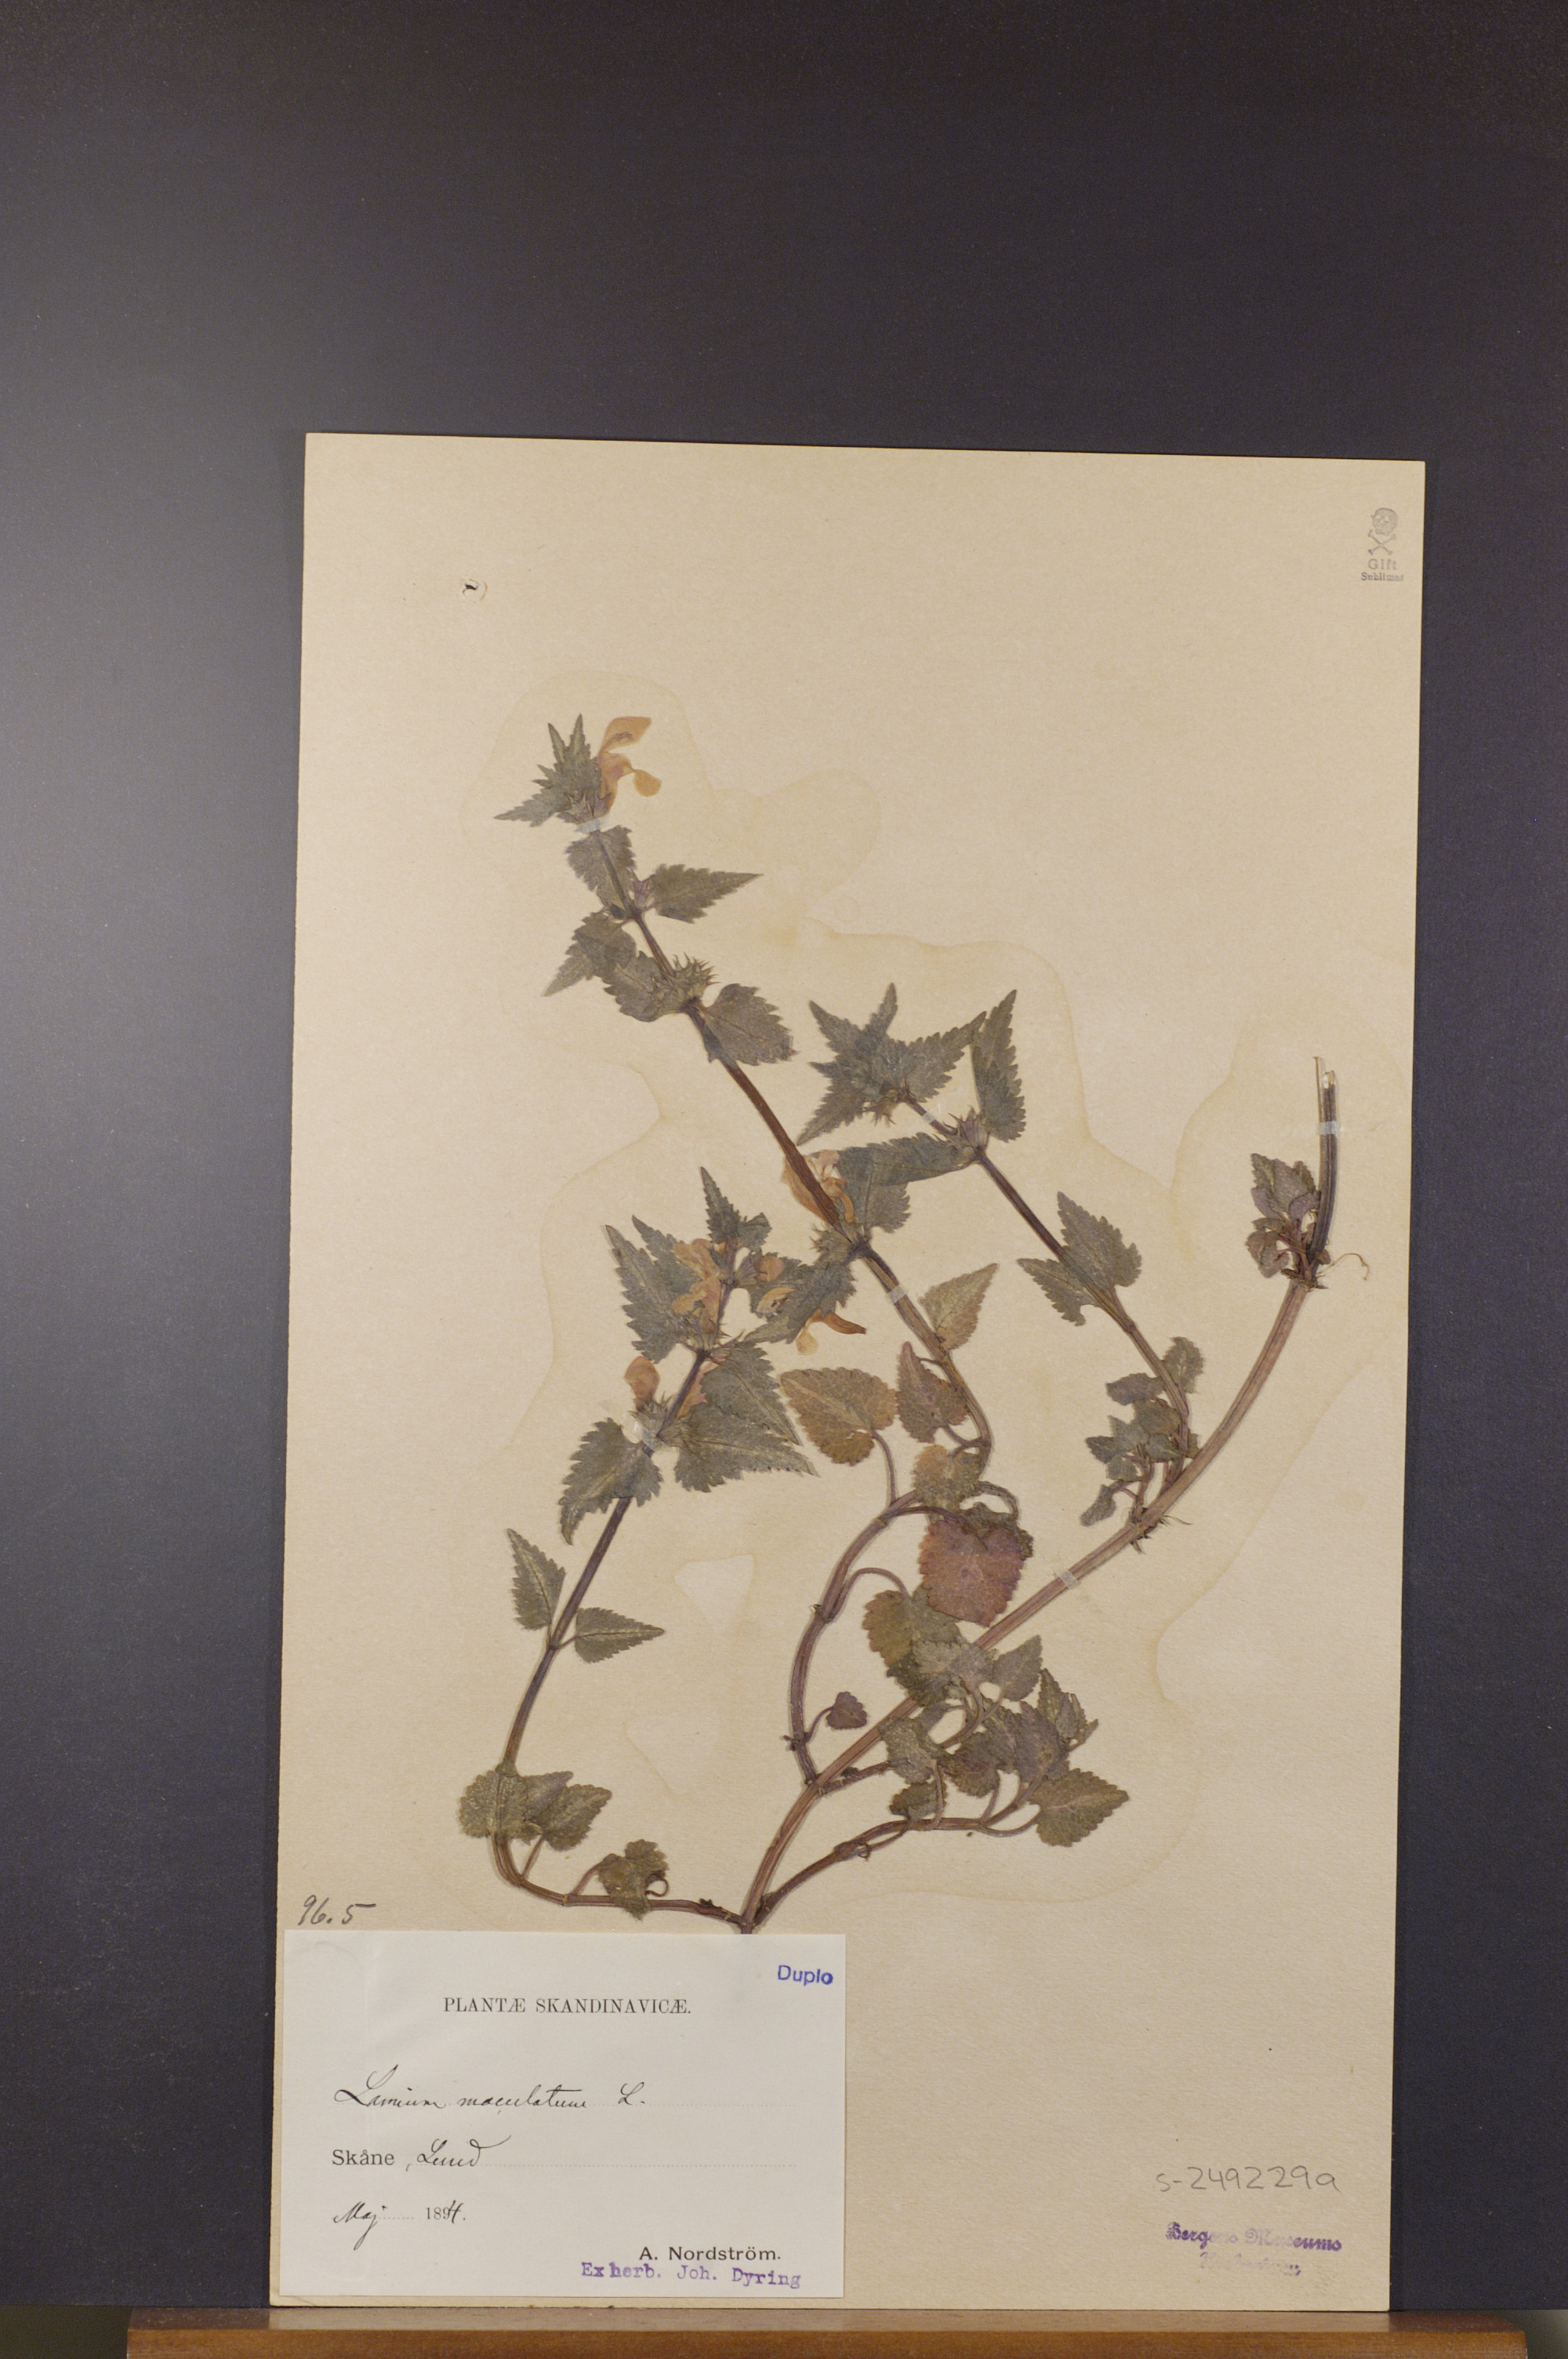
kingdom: Plantae
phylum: Tracheophyta
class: Magnoliopsida
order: Lamiales
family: Lamiaceae
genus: Lamium
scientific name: Lamium maculatum
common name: Spotted dead-nettle
